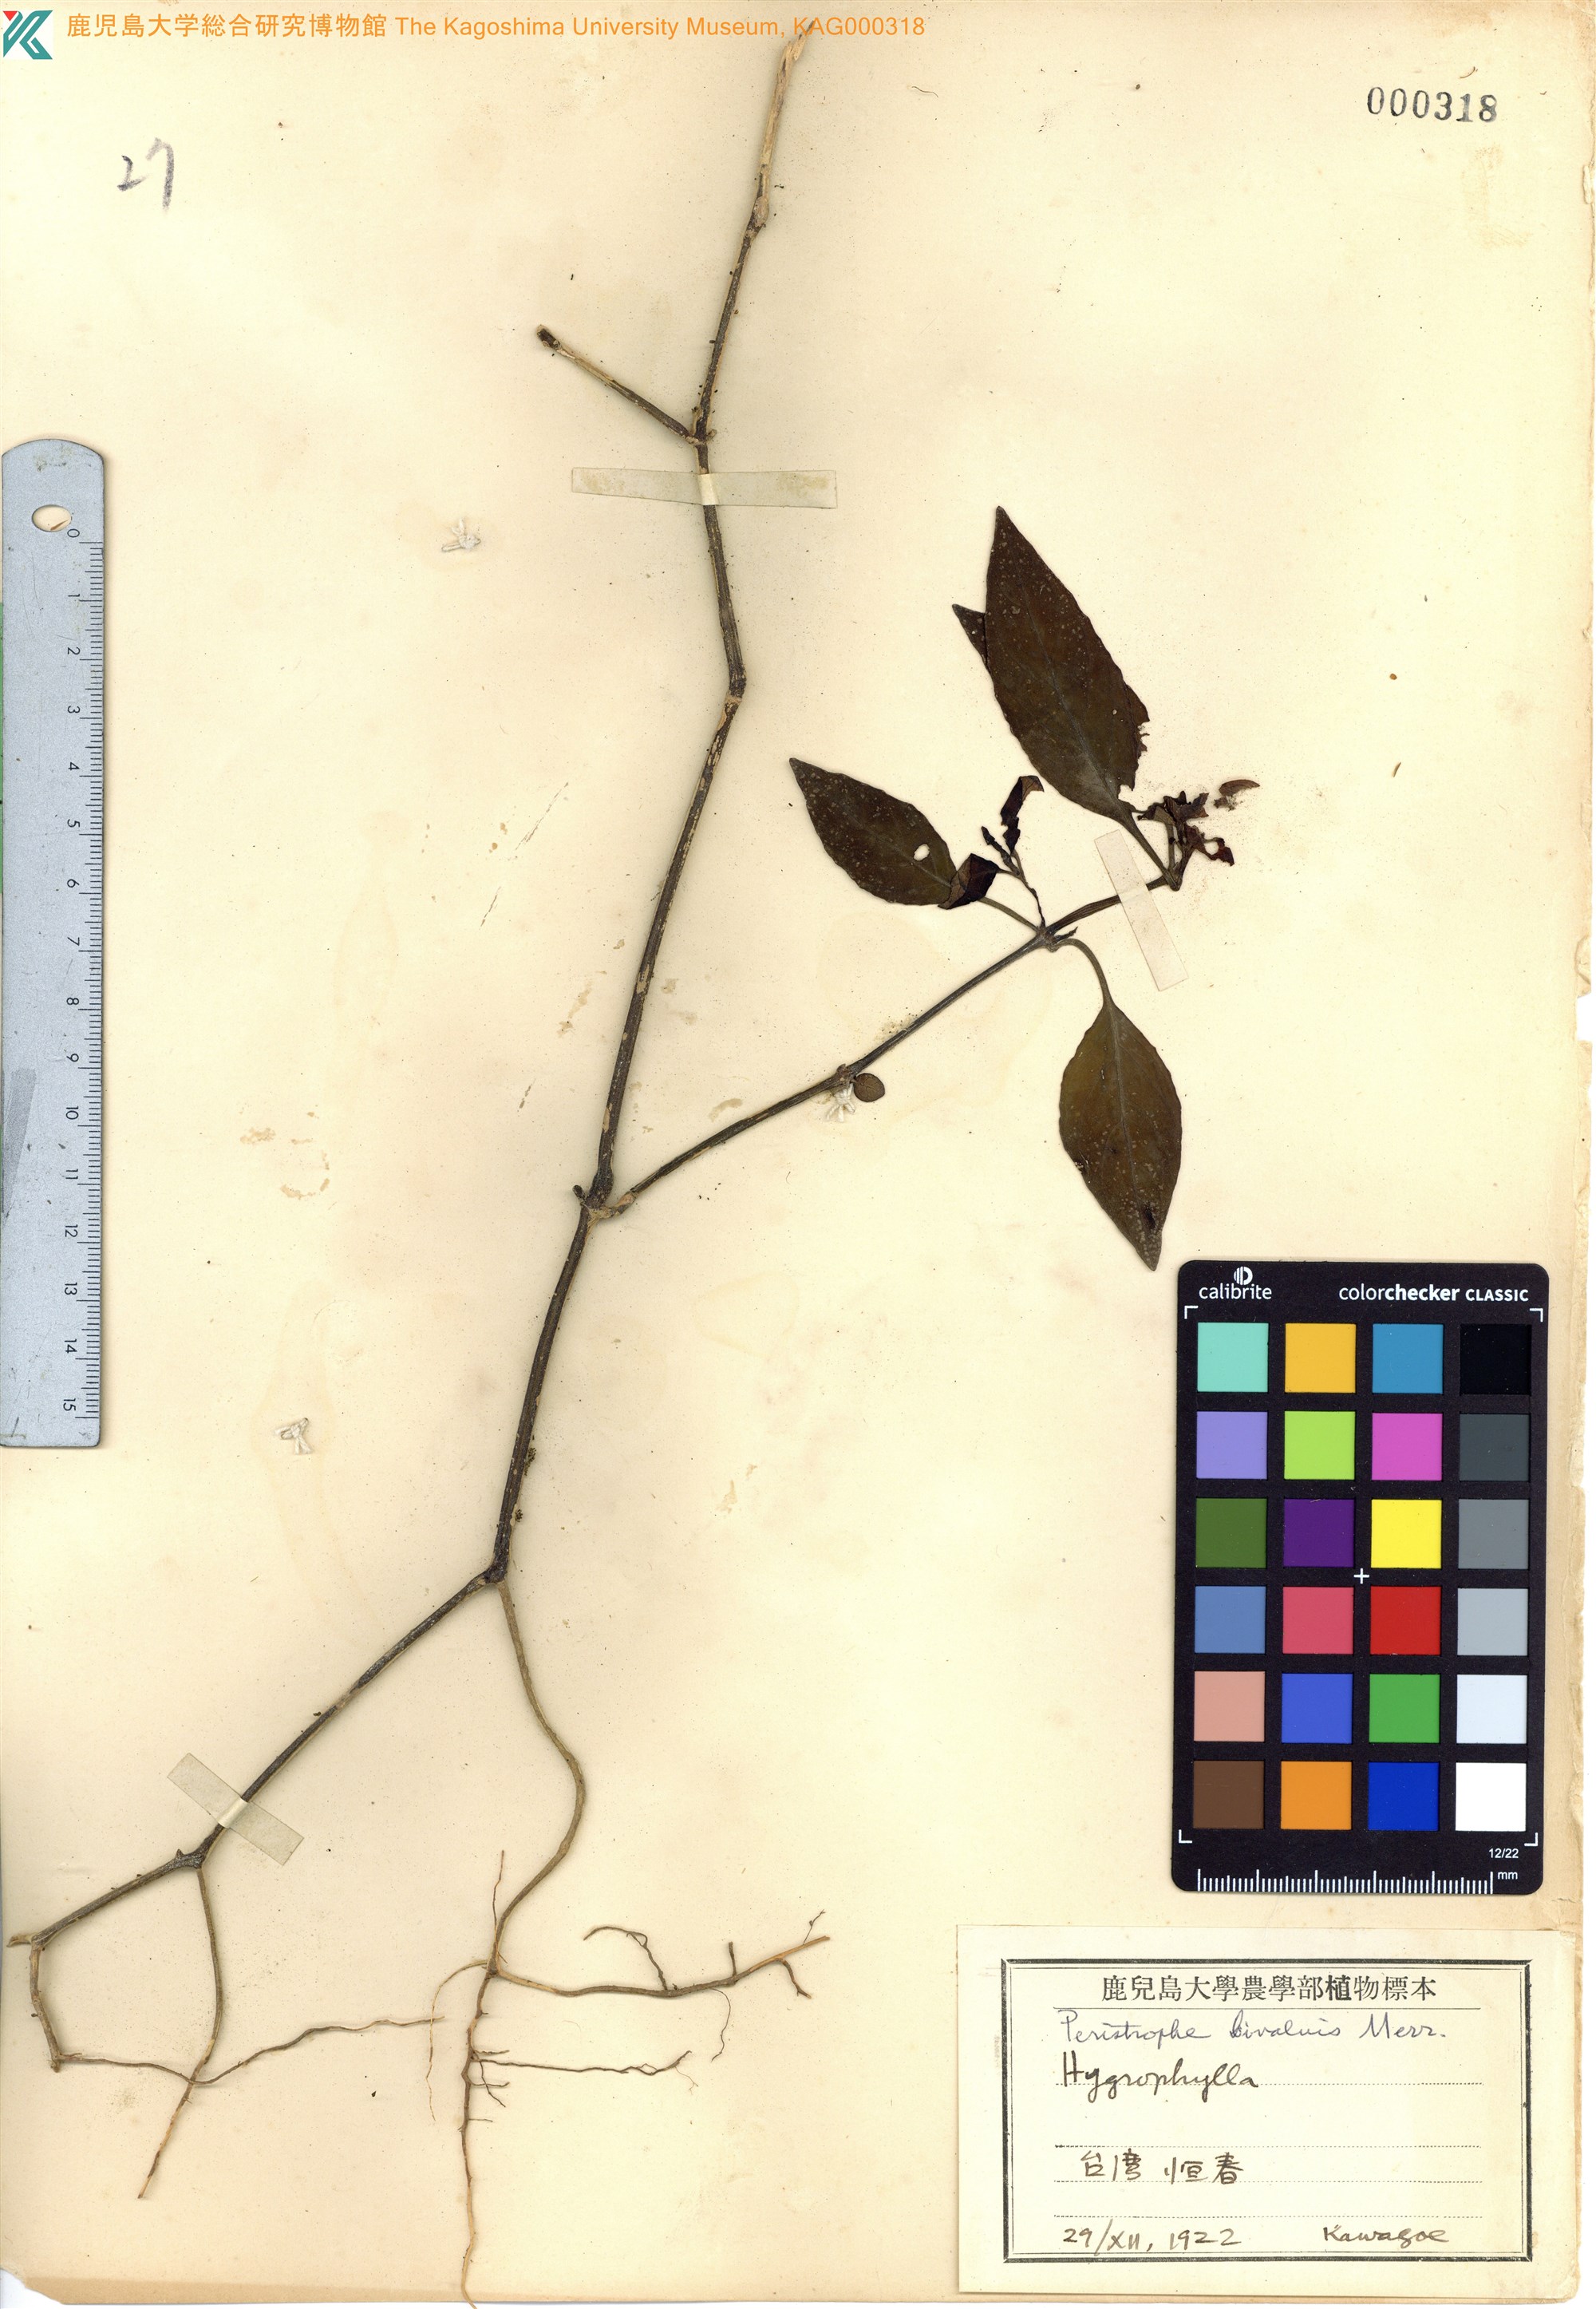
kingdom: Plantae
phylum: Tracheophyta
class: Magnoliopsida
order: Lamiales
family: Acanthaceae
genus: Dicliptera
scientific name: Dicliptera tinctoria
